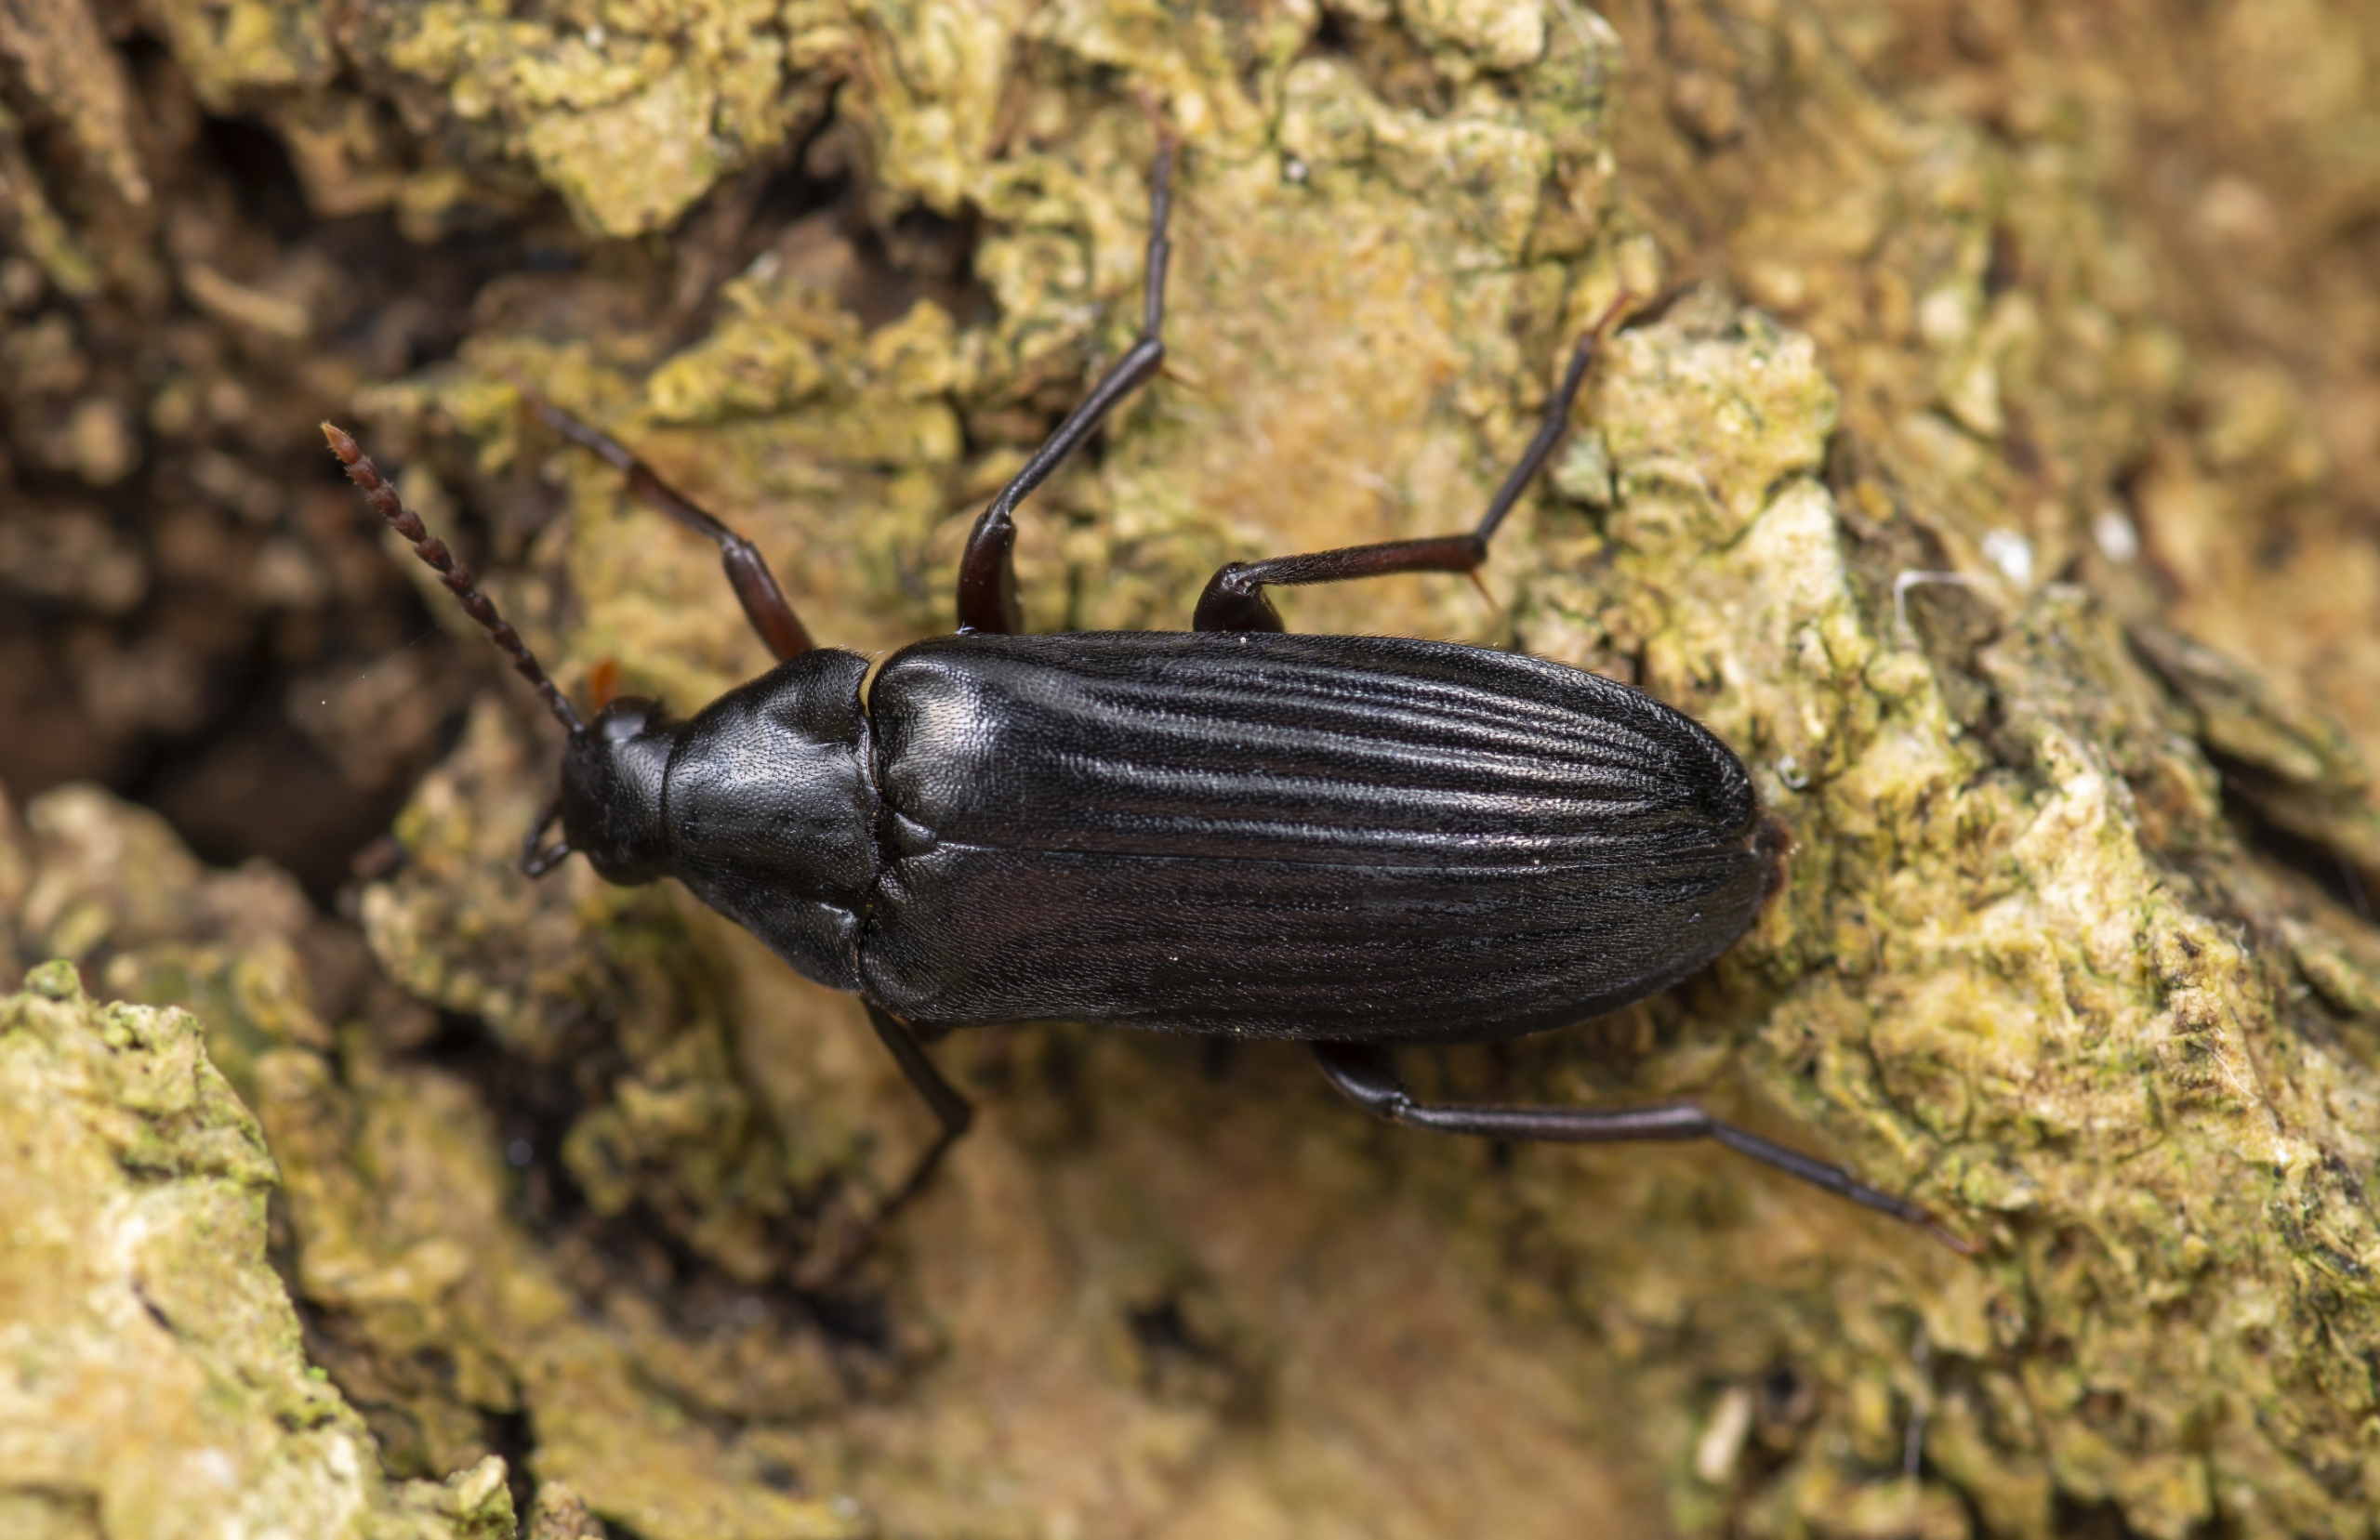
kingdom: Animalia
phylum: Arthropoda
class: Insecta
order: Coleoptera
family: Melandryidae
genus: Melandrya
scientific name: Melandrya barbata
